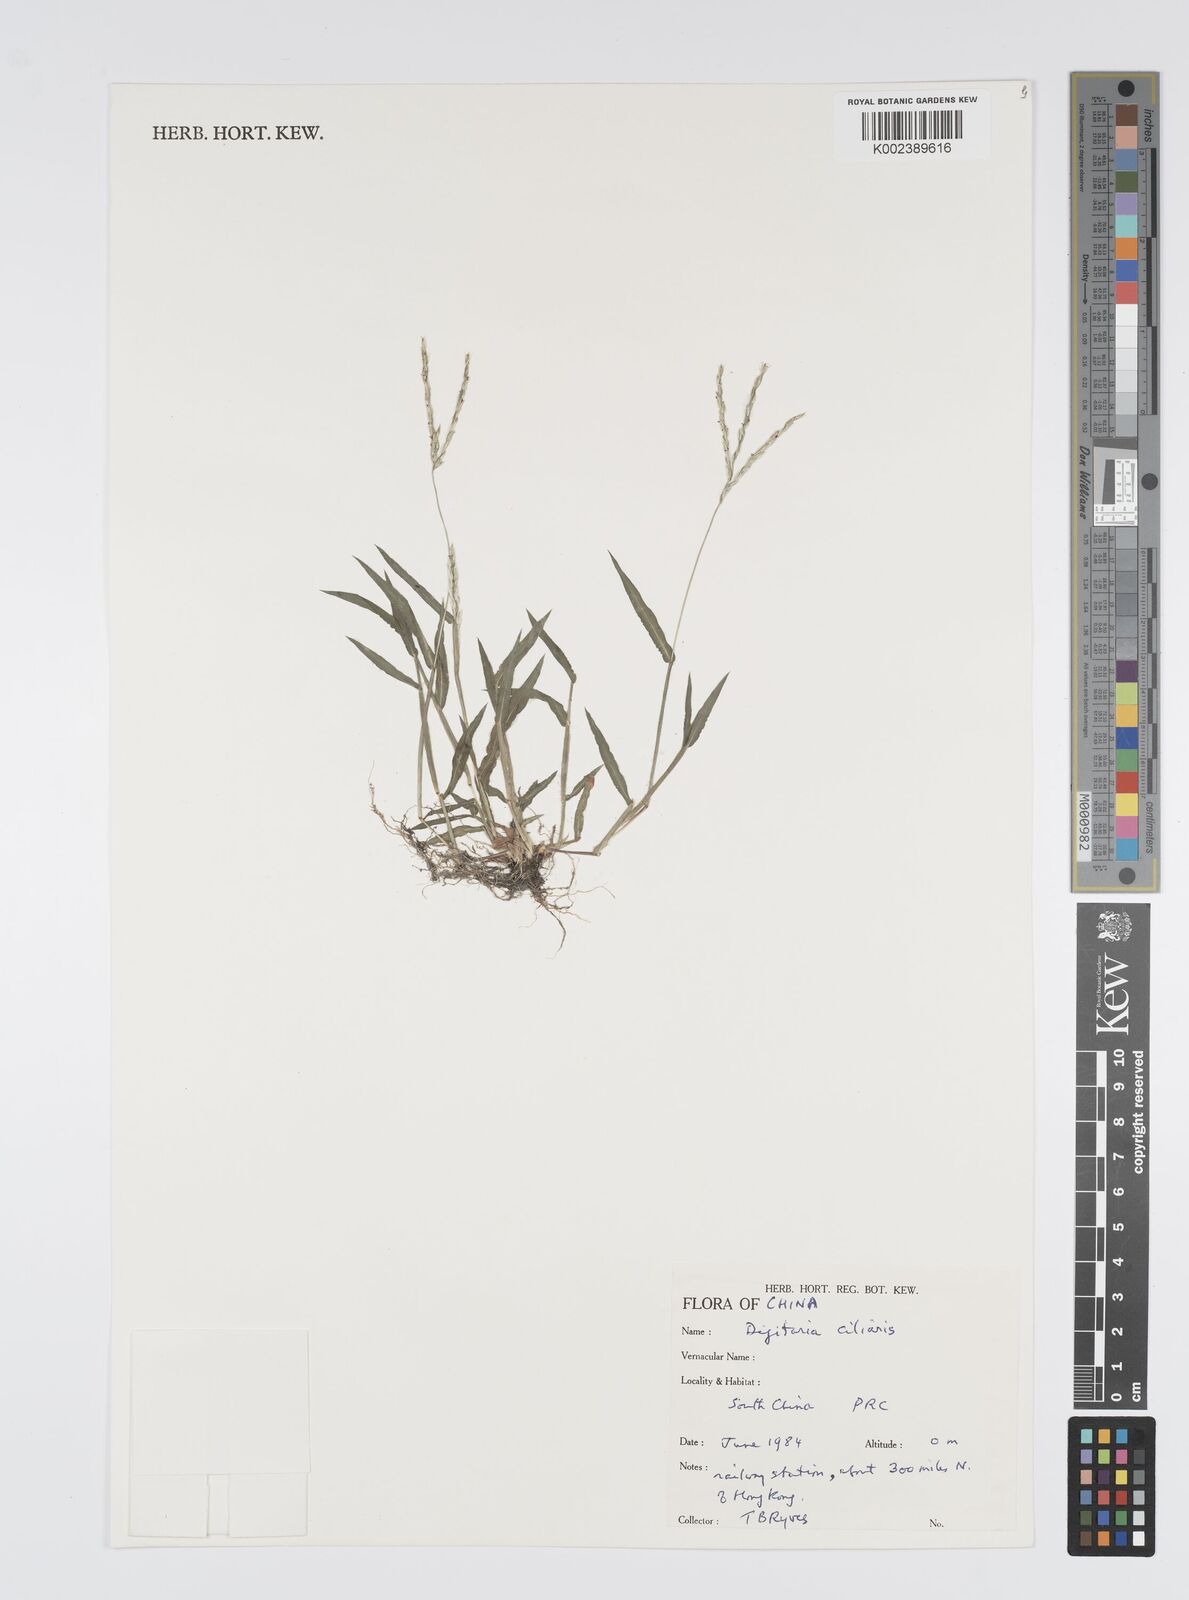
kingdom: Plantae
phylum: Tracheophyta
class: Liliopsida
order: Poales
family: Poaceae
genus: Digitaria
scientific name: Digitaria ciliaris
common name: Tropical finger-grass
